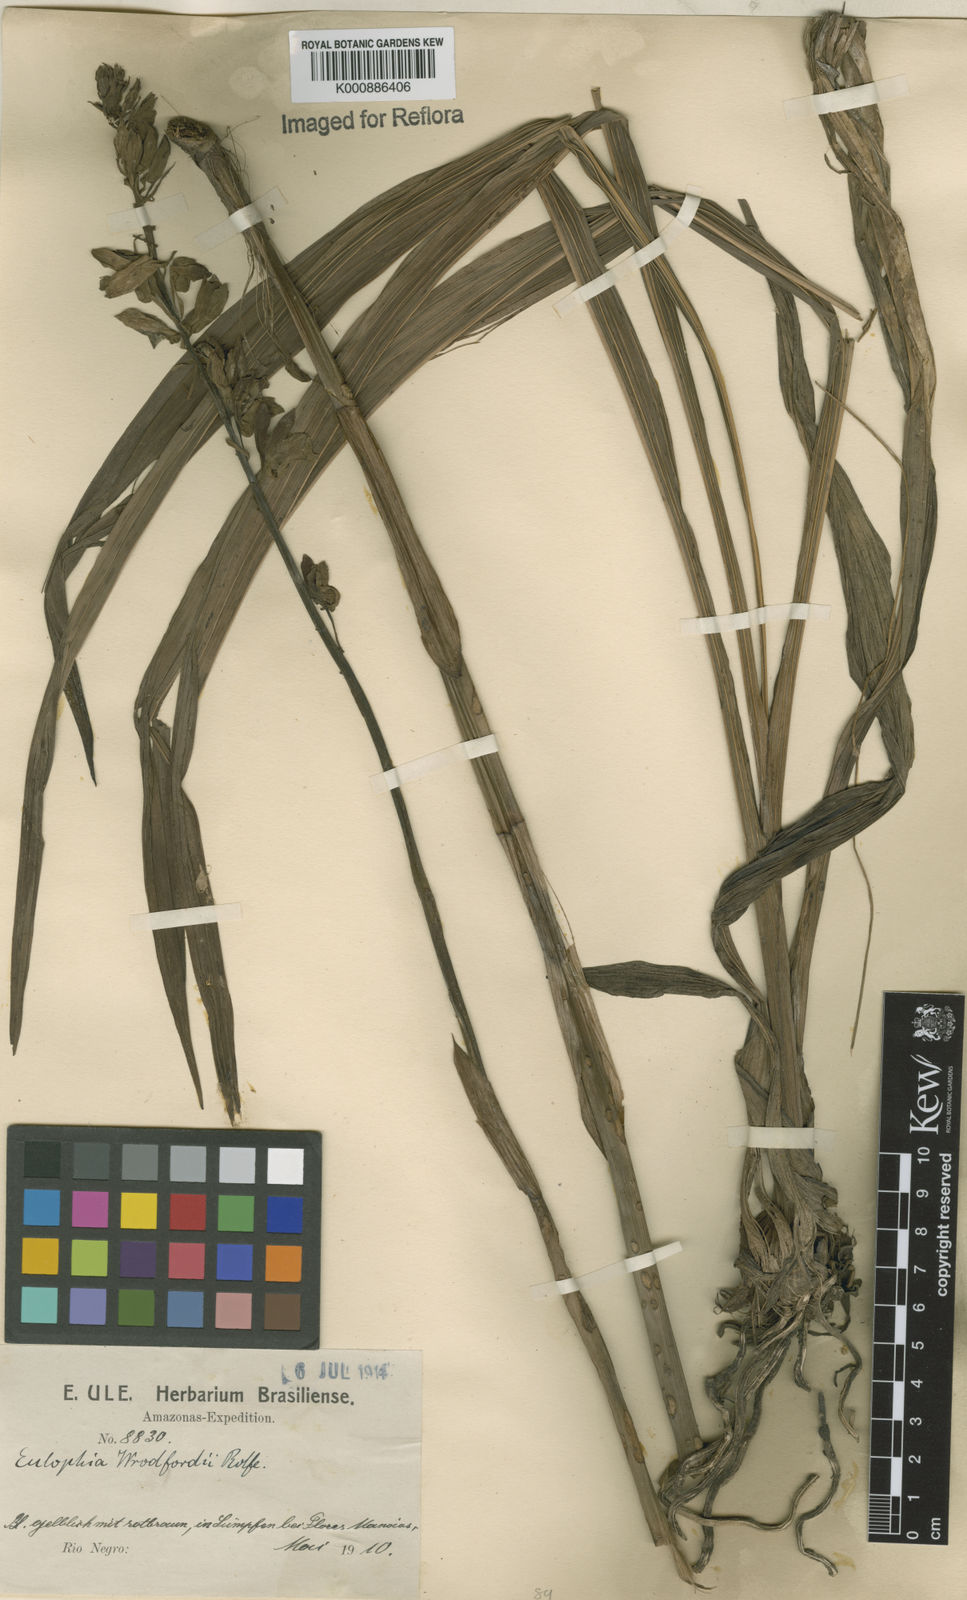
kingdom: Plantae
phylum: Tracheophyta
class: Liliopsida
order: Asparagales
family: Orchidaceae
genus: Eulophia
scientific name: Eulophia alta
